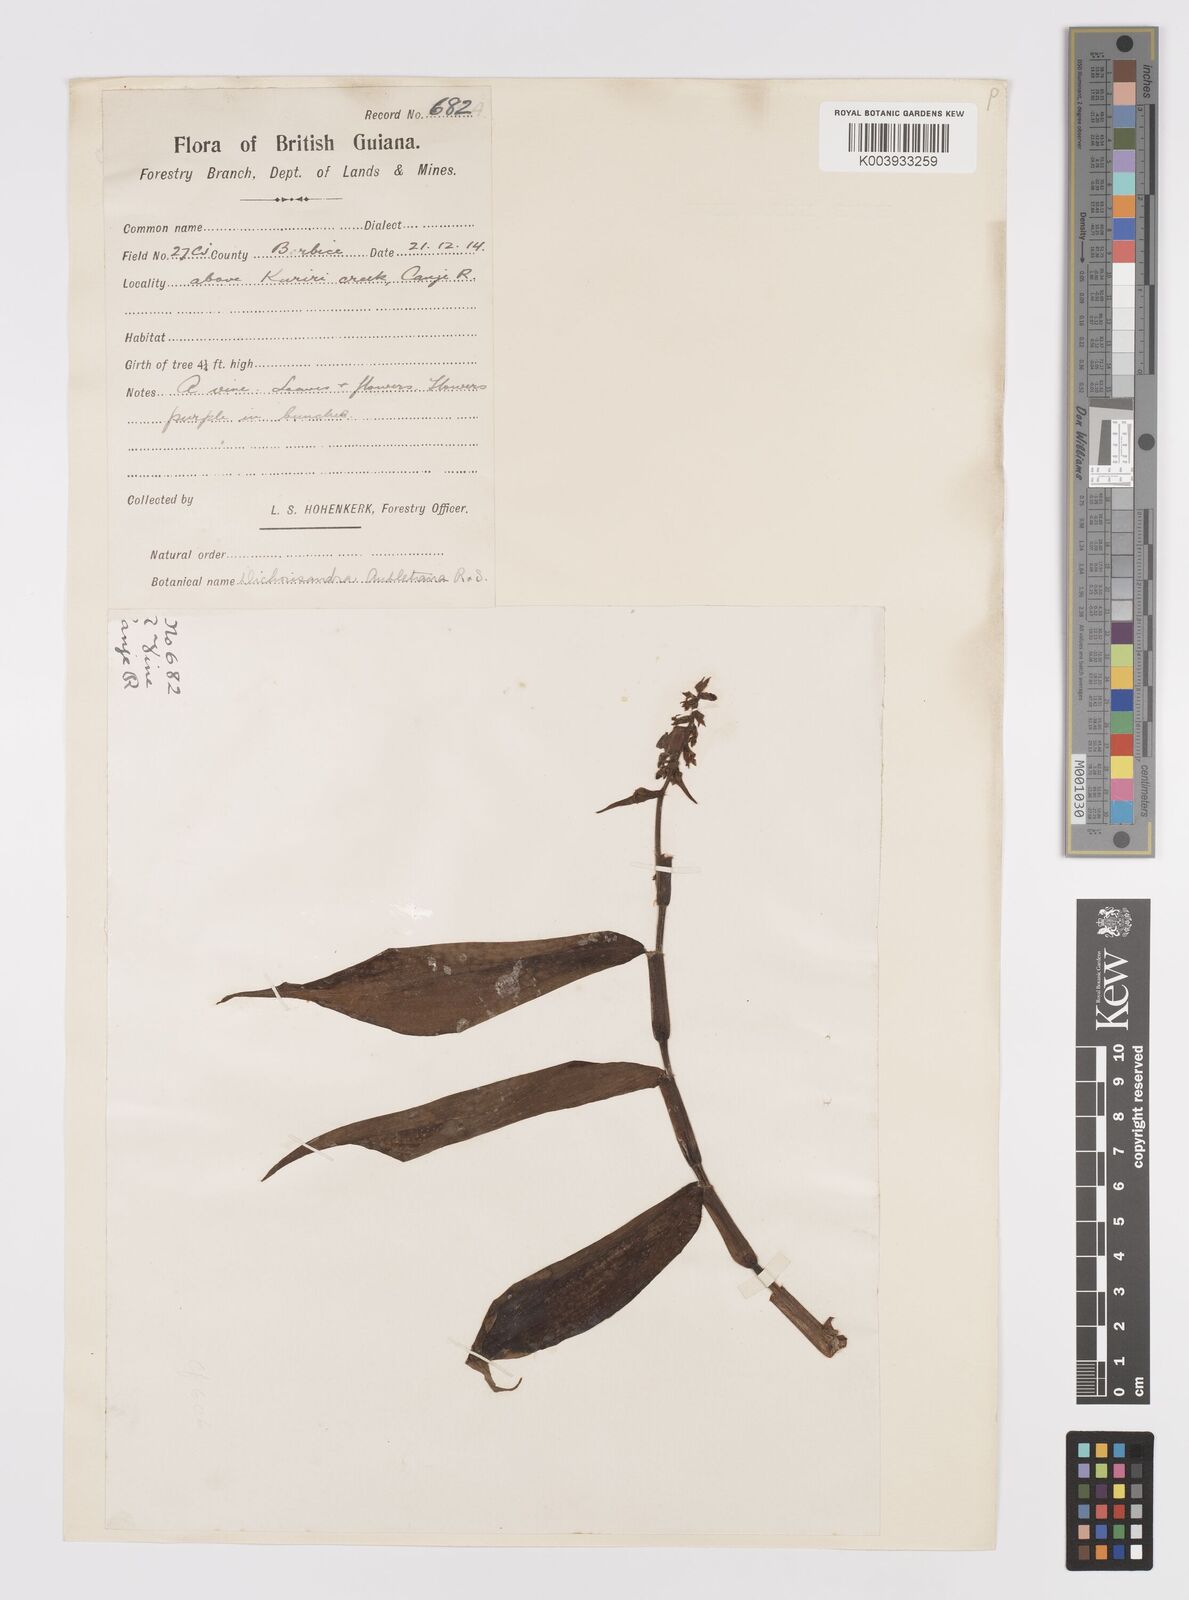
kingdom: Plantae
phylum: Tracheophyta
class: Liliopsida
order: Commelinales
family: Commelinaceae
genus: Dichorisandra
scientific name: Dichorisandra hexandra
